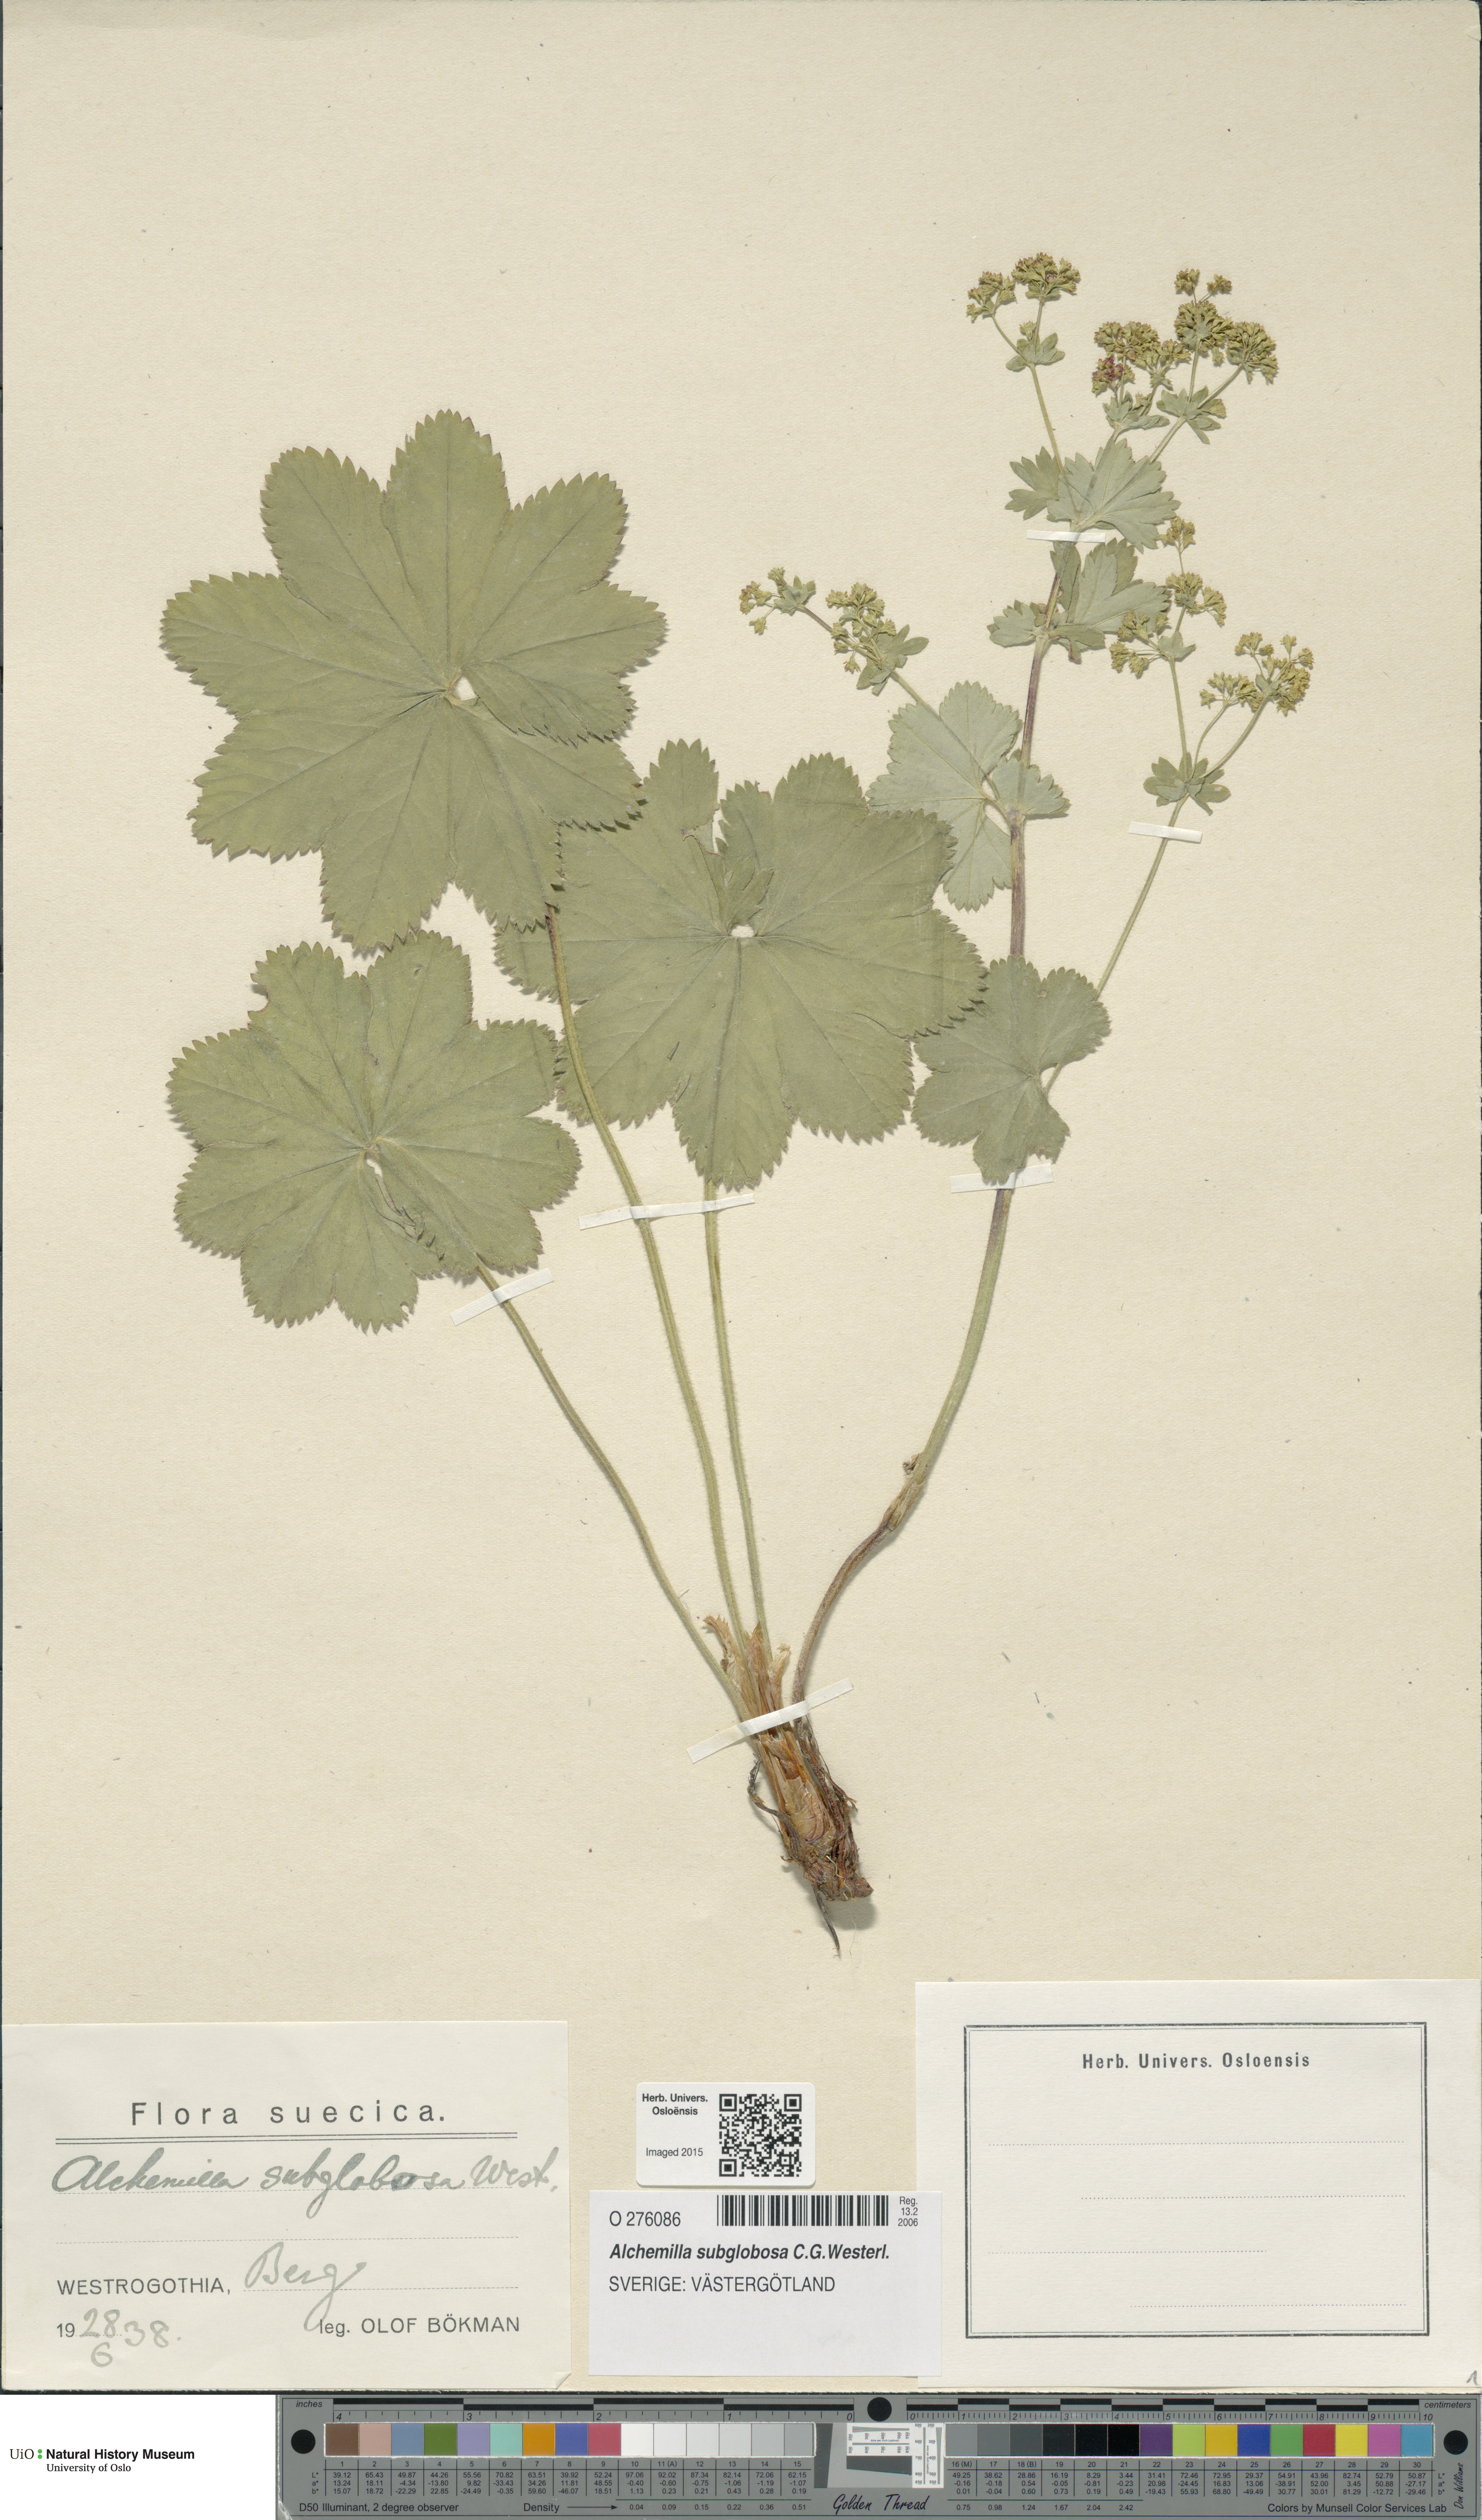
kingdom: Plantae
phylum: Tracheophyta
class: Magnoliopsida
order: Rosales
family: Rosaceae
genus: Alchemilla
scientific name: Alchemilla subglobosa
